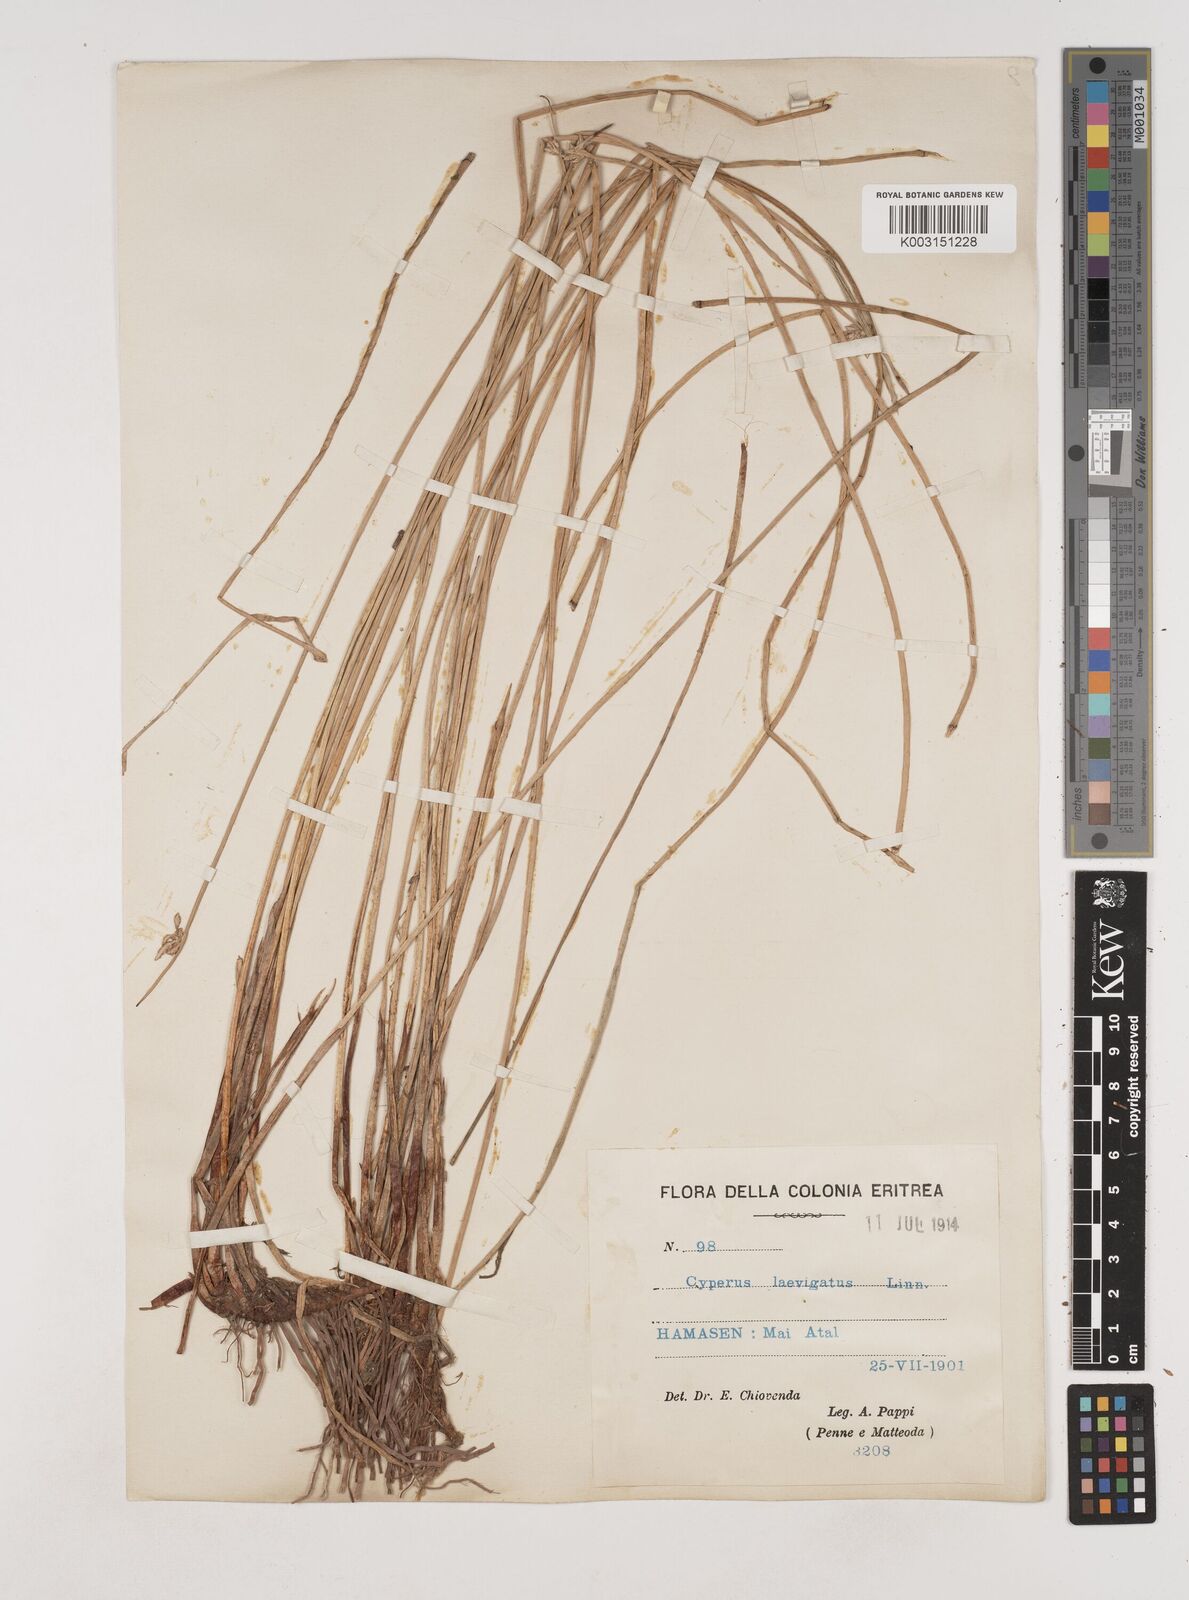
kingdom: Plantae
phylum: Tracheophyta
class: Liliopsida
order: Poales
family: Cyperaceae
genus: Cyperus
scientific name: Cyperus laevigatus
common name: Smooth flat sedge
